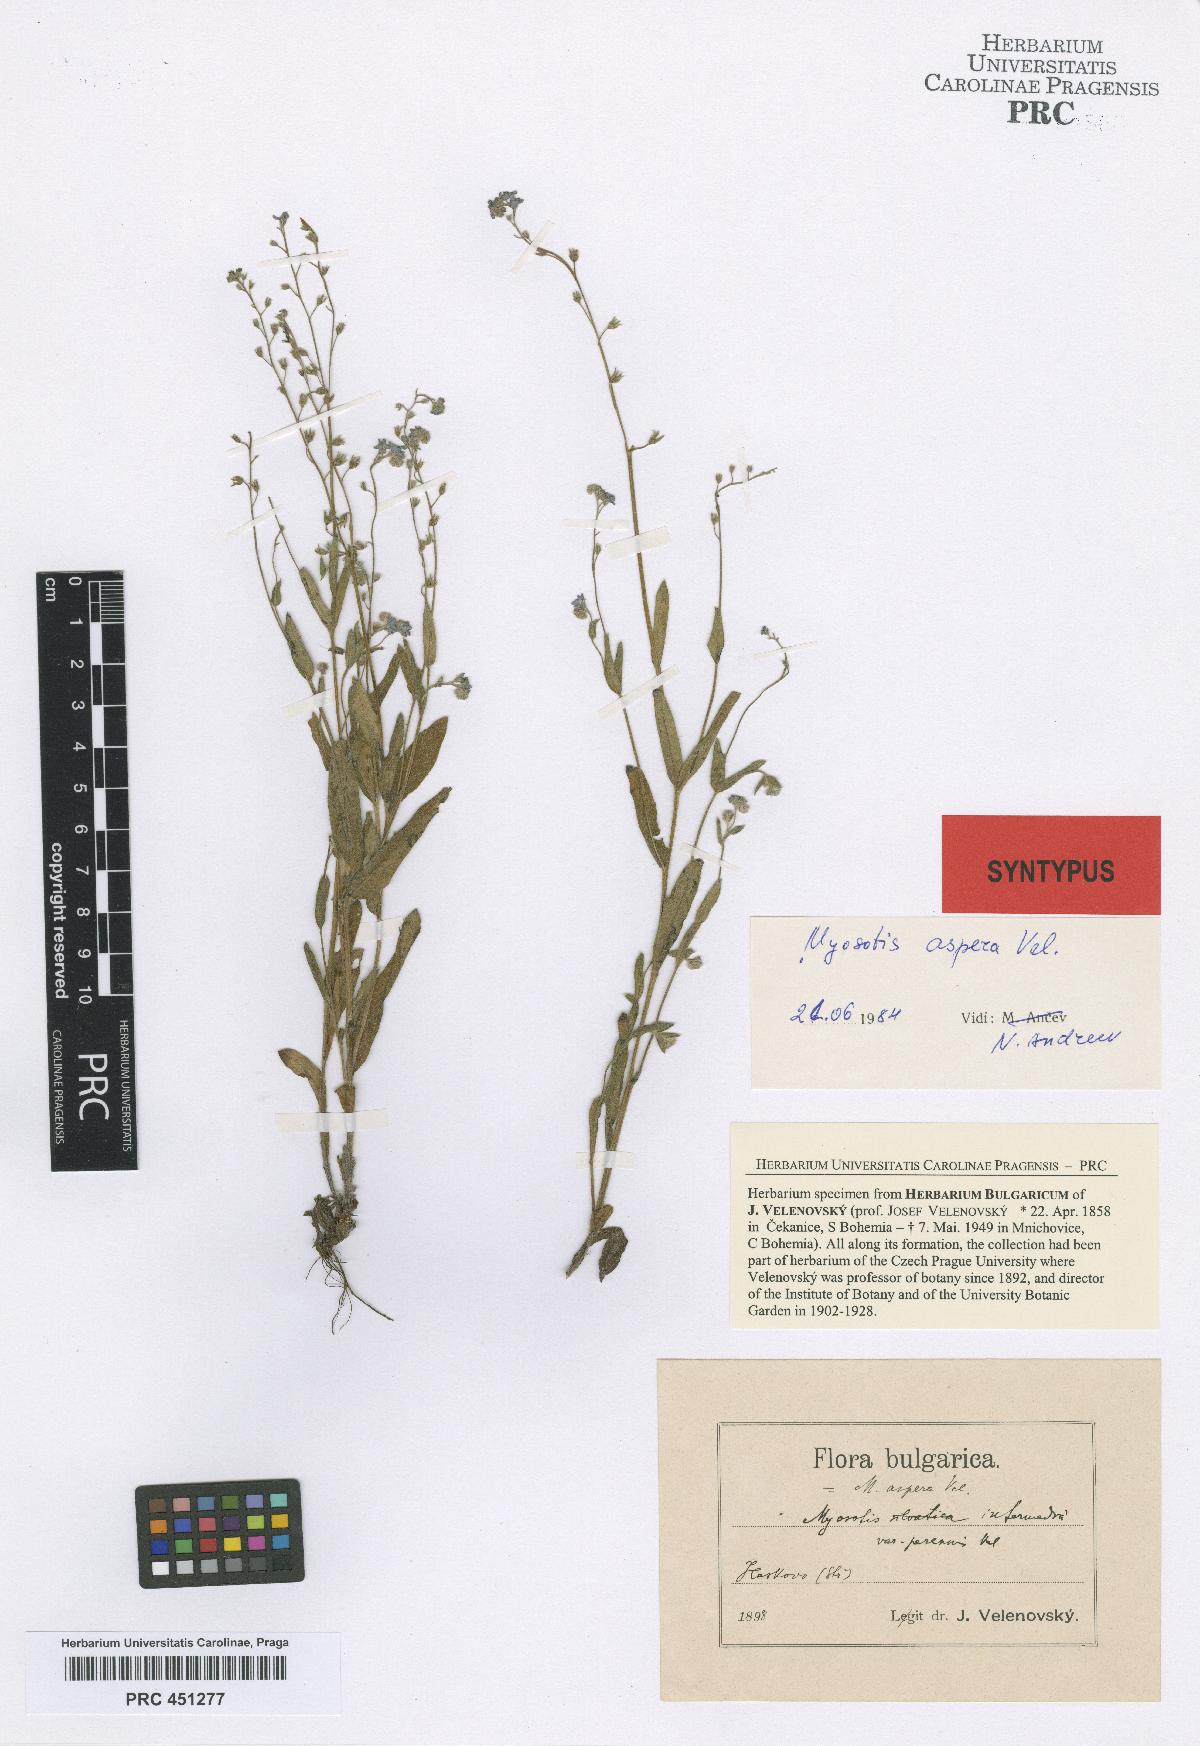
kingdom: Plantae
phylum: Tracheophyta
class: Magnoliopsida
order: Boraginales
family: Boraginaceae
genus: Myosotis
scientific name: Myosotis sylvatica
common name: Wood forget-me-not
